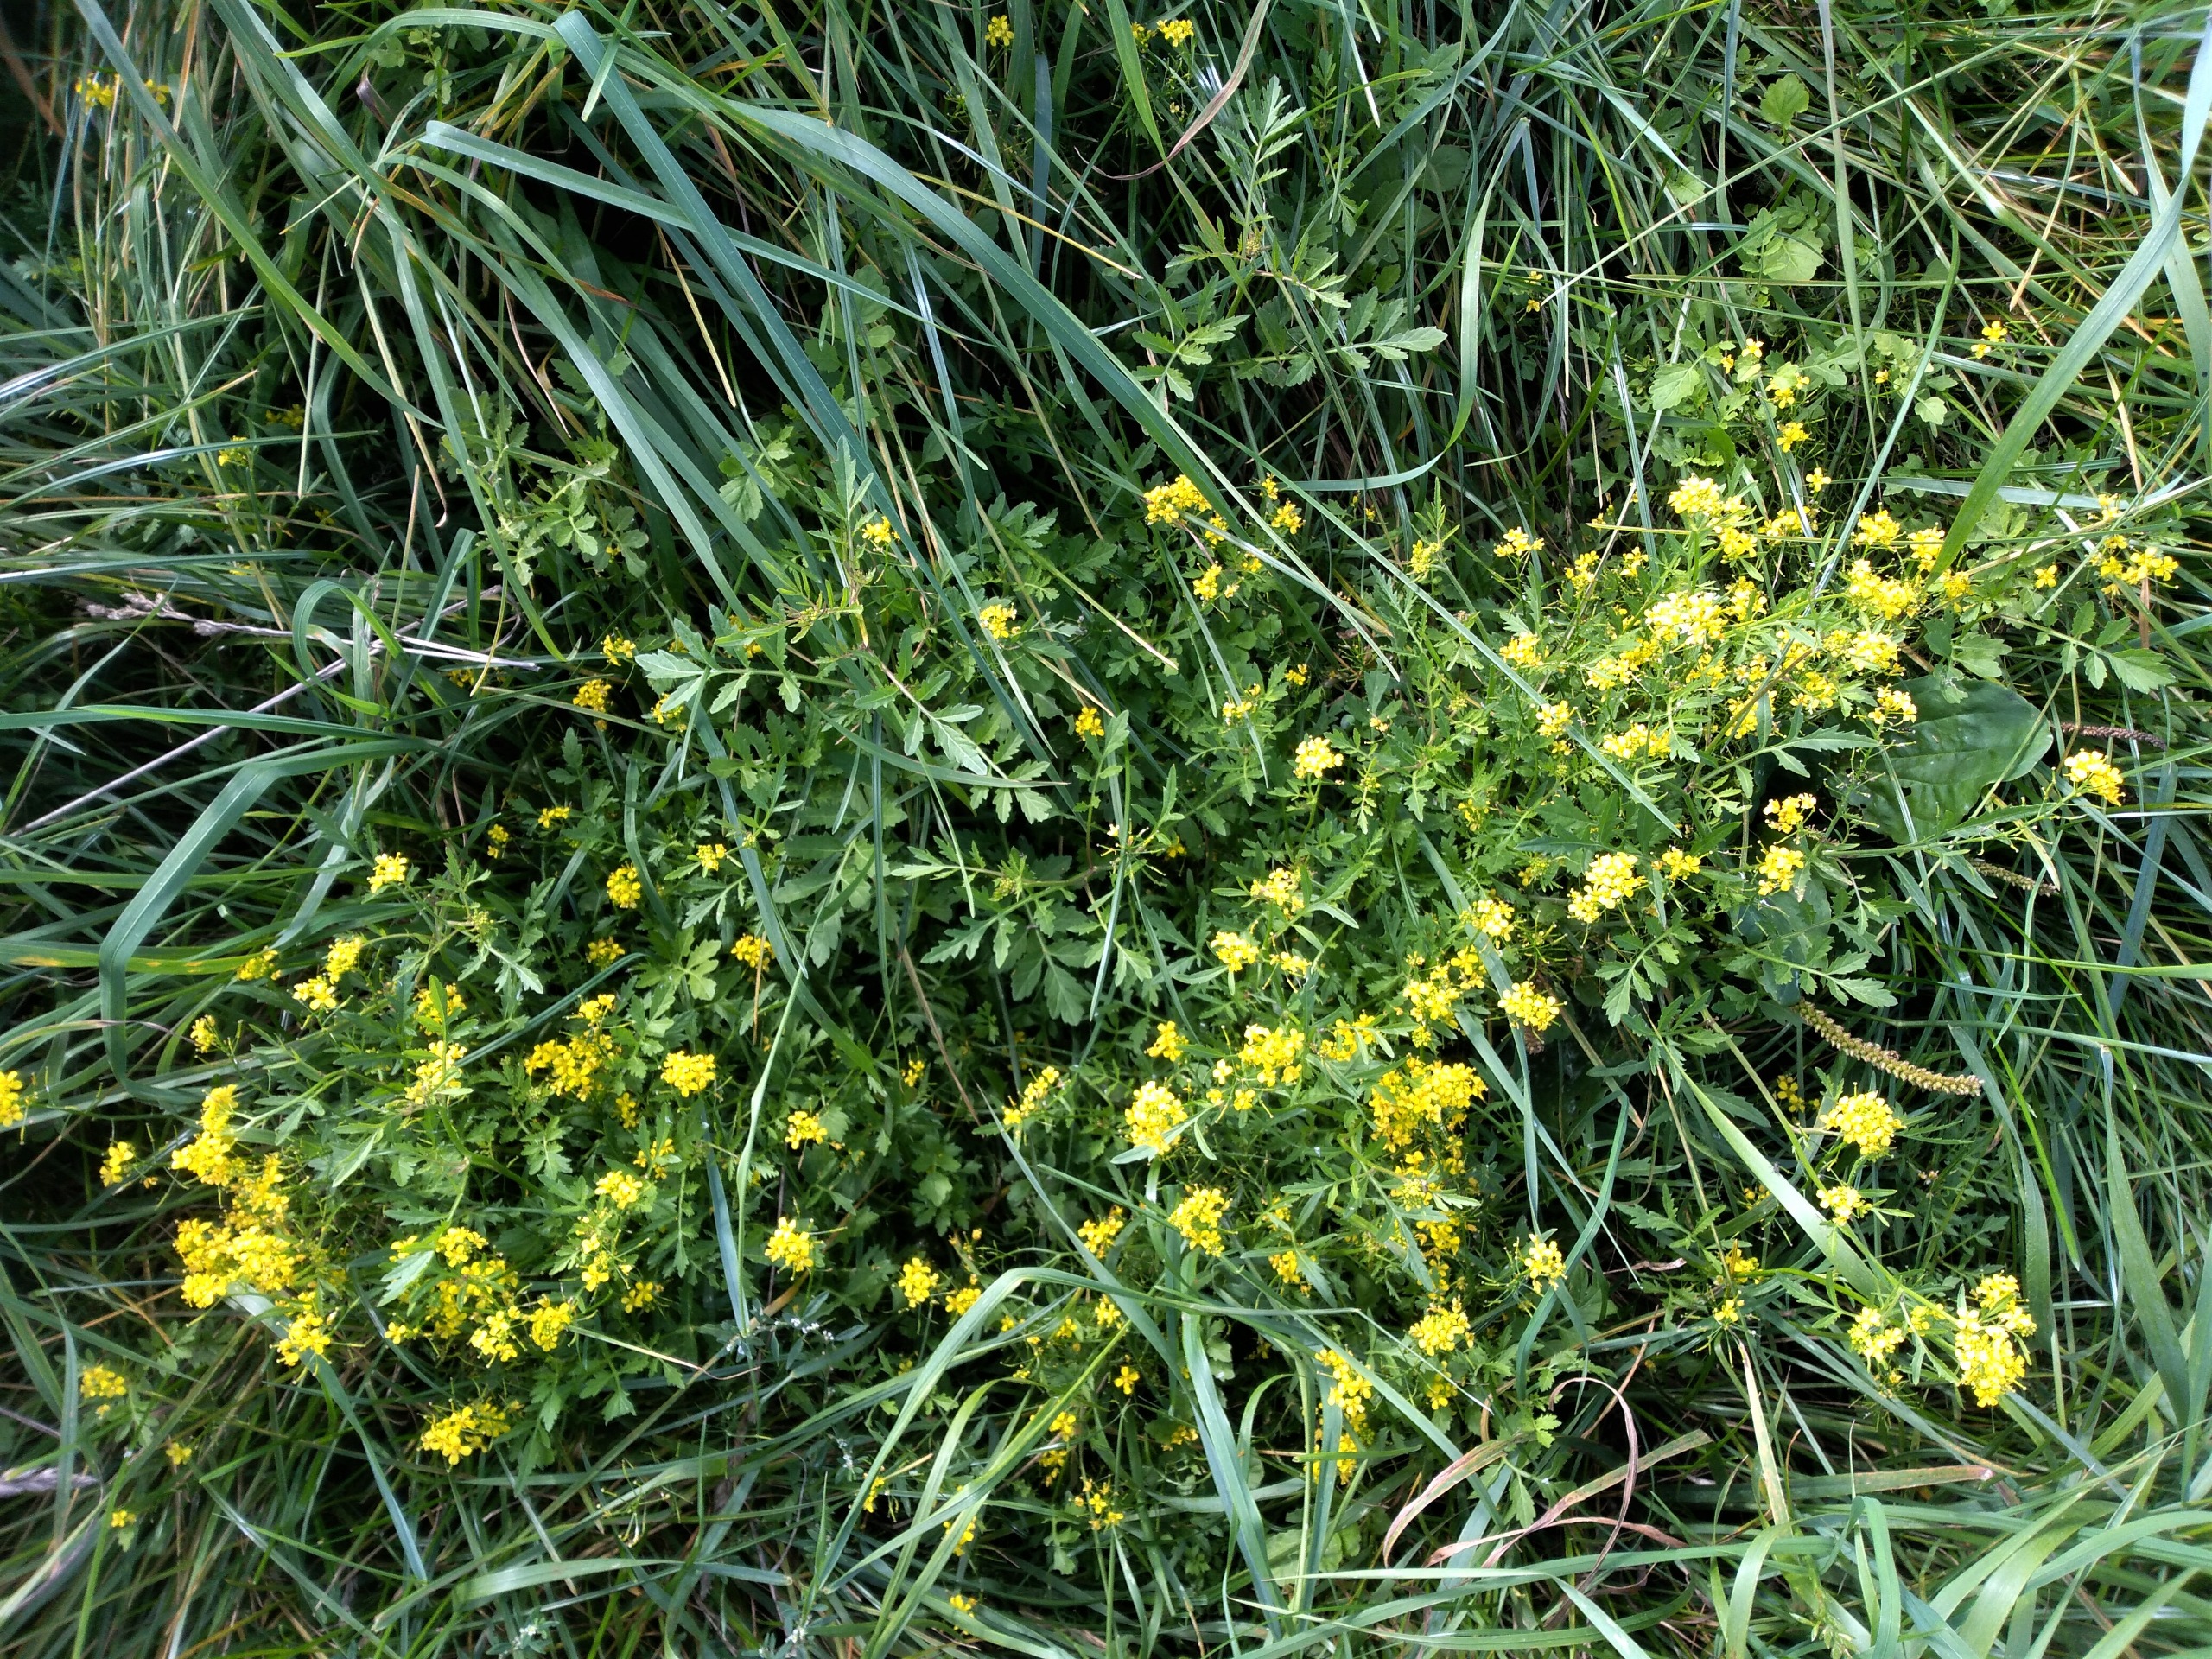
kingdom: Plantae
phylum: Tracheophyta
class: Magnoliopsida
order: Brassicales
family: Brassicaceae
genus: Rorippa
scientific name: Rorippa sylvestris
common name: Vej-guldkarse
